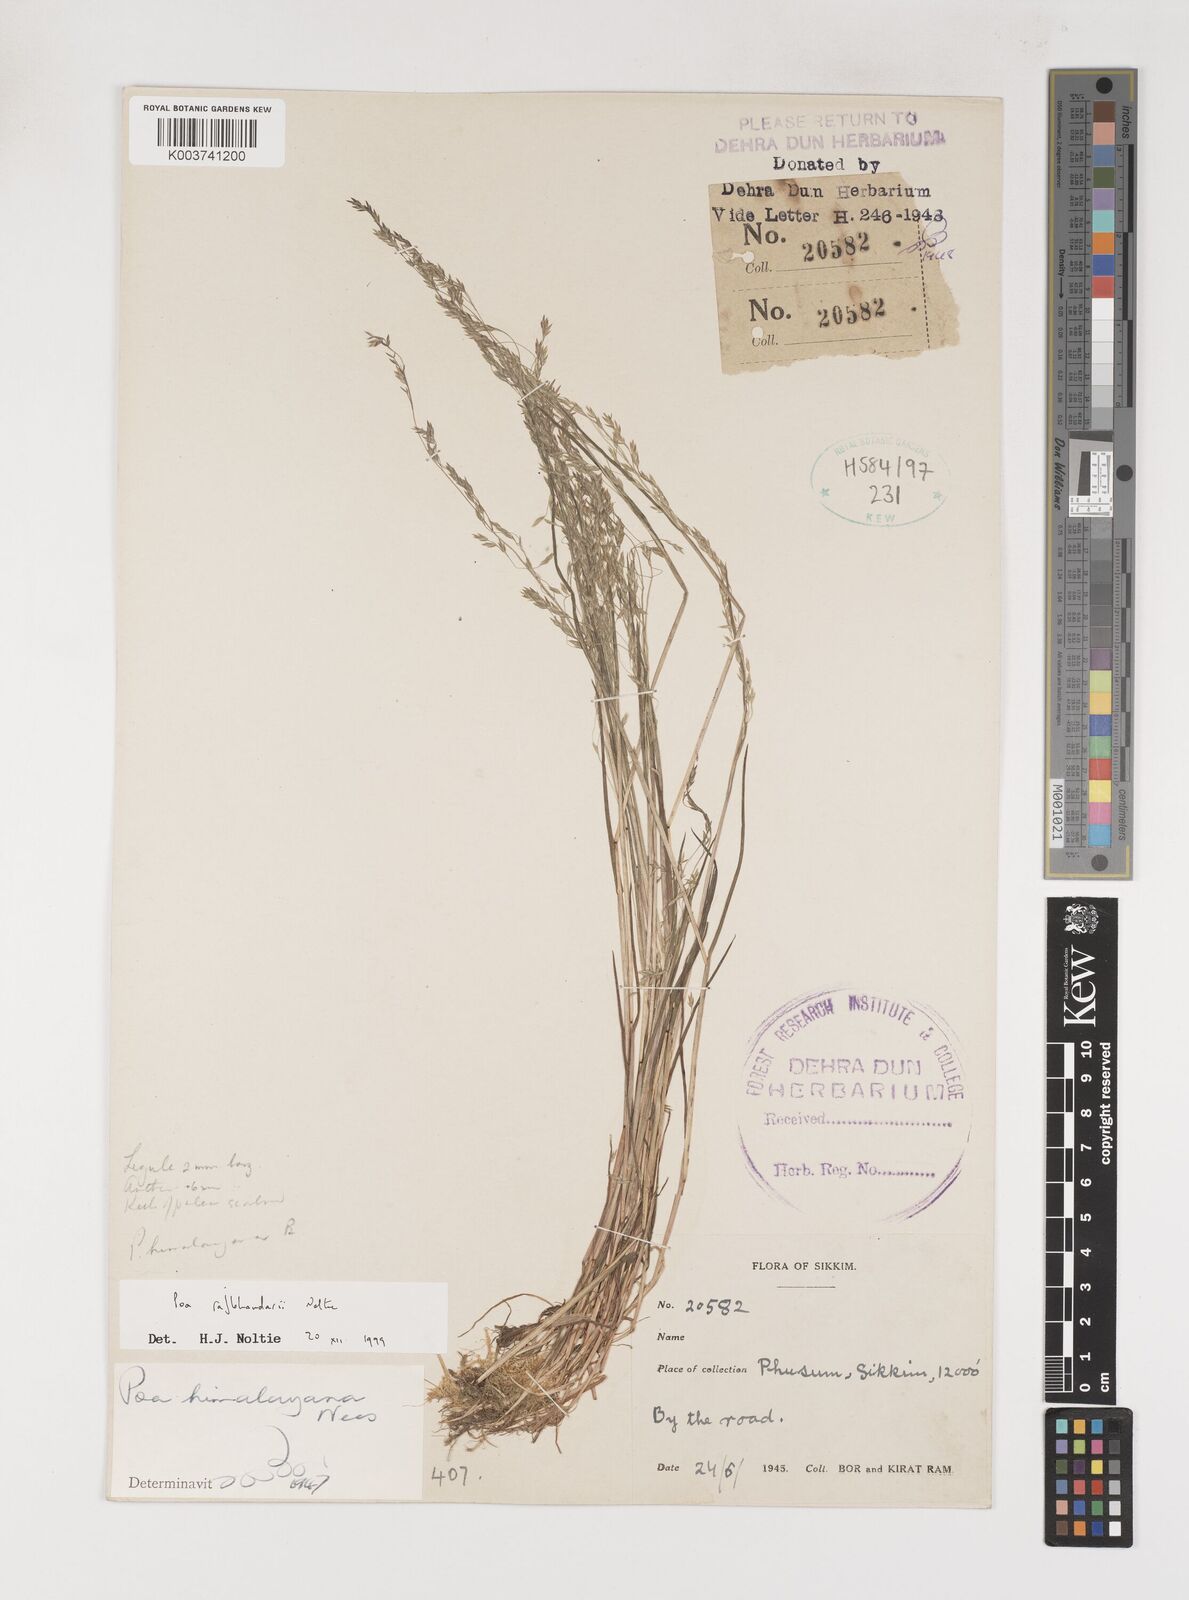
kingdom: Plantae
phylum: Tracheophyta
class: Liliopsida
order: Poales
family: Poaceae
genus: Poa
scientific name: Poa rajbhandarii
